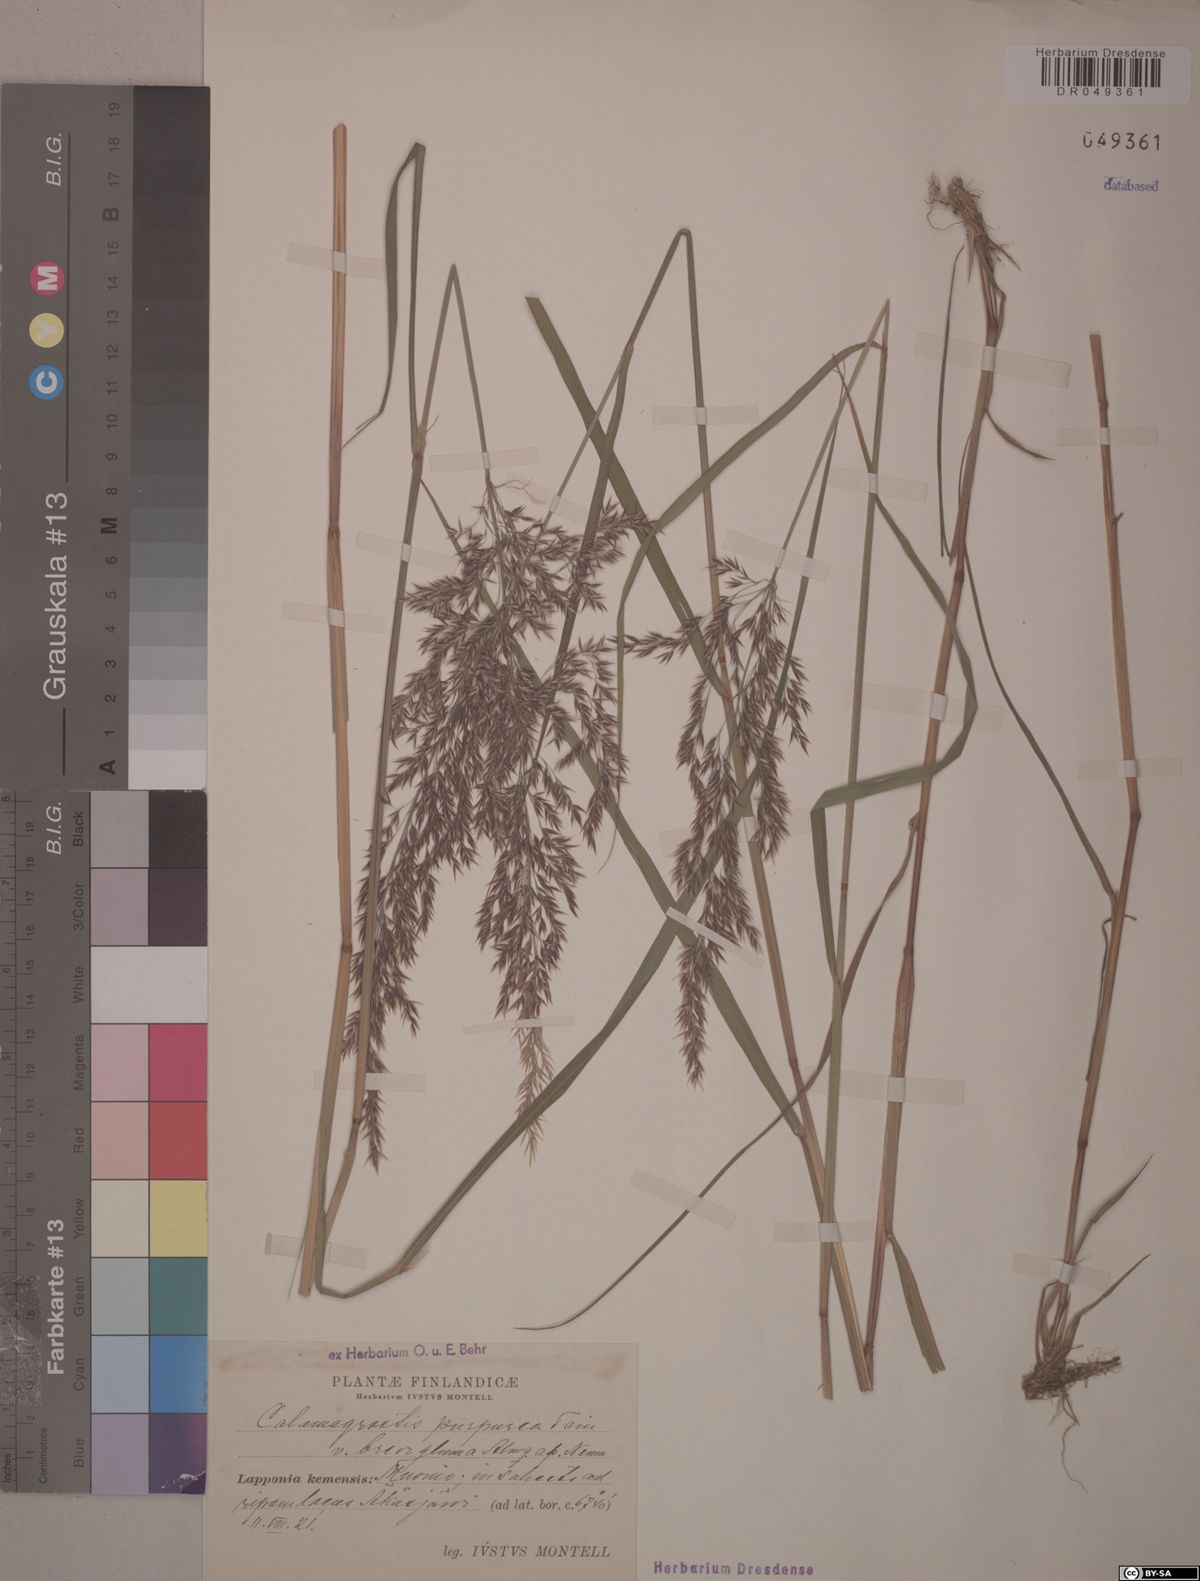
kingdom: Plantae
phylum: Tracheophyta
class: Liliopsida
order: Poales
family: Poaceae
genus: Calamagrostis
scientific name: Calamagrostis purpurea
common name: Scandinavian small-reed
